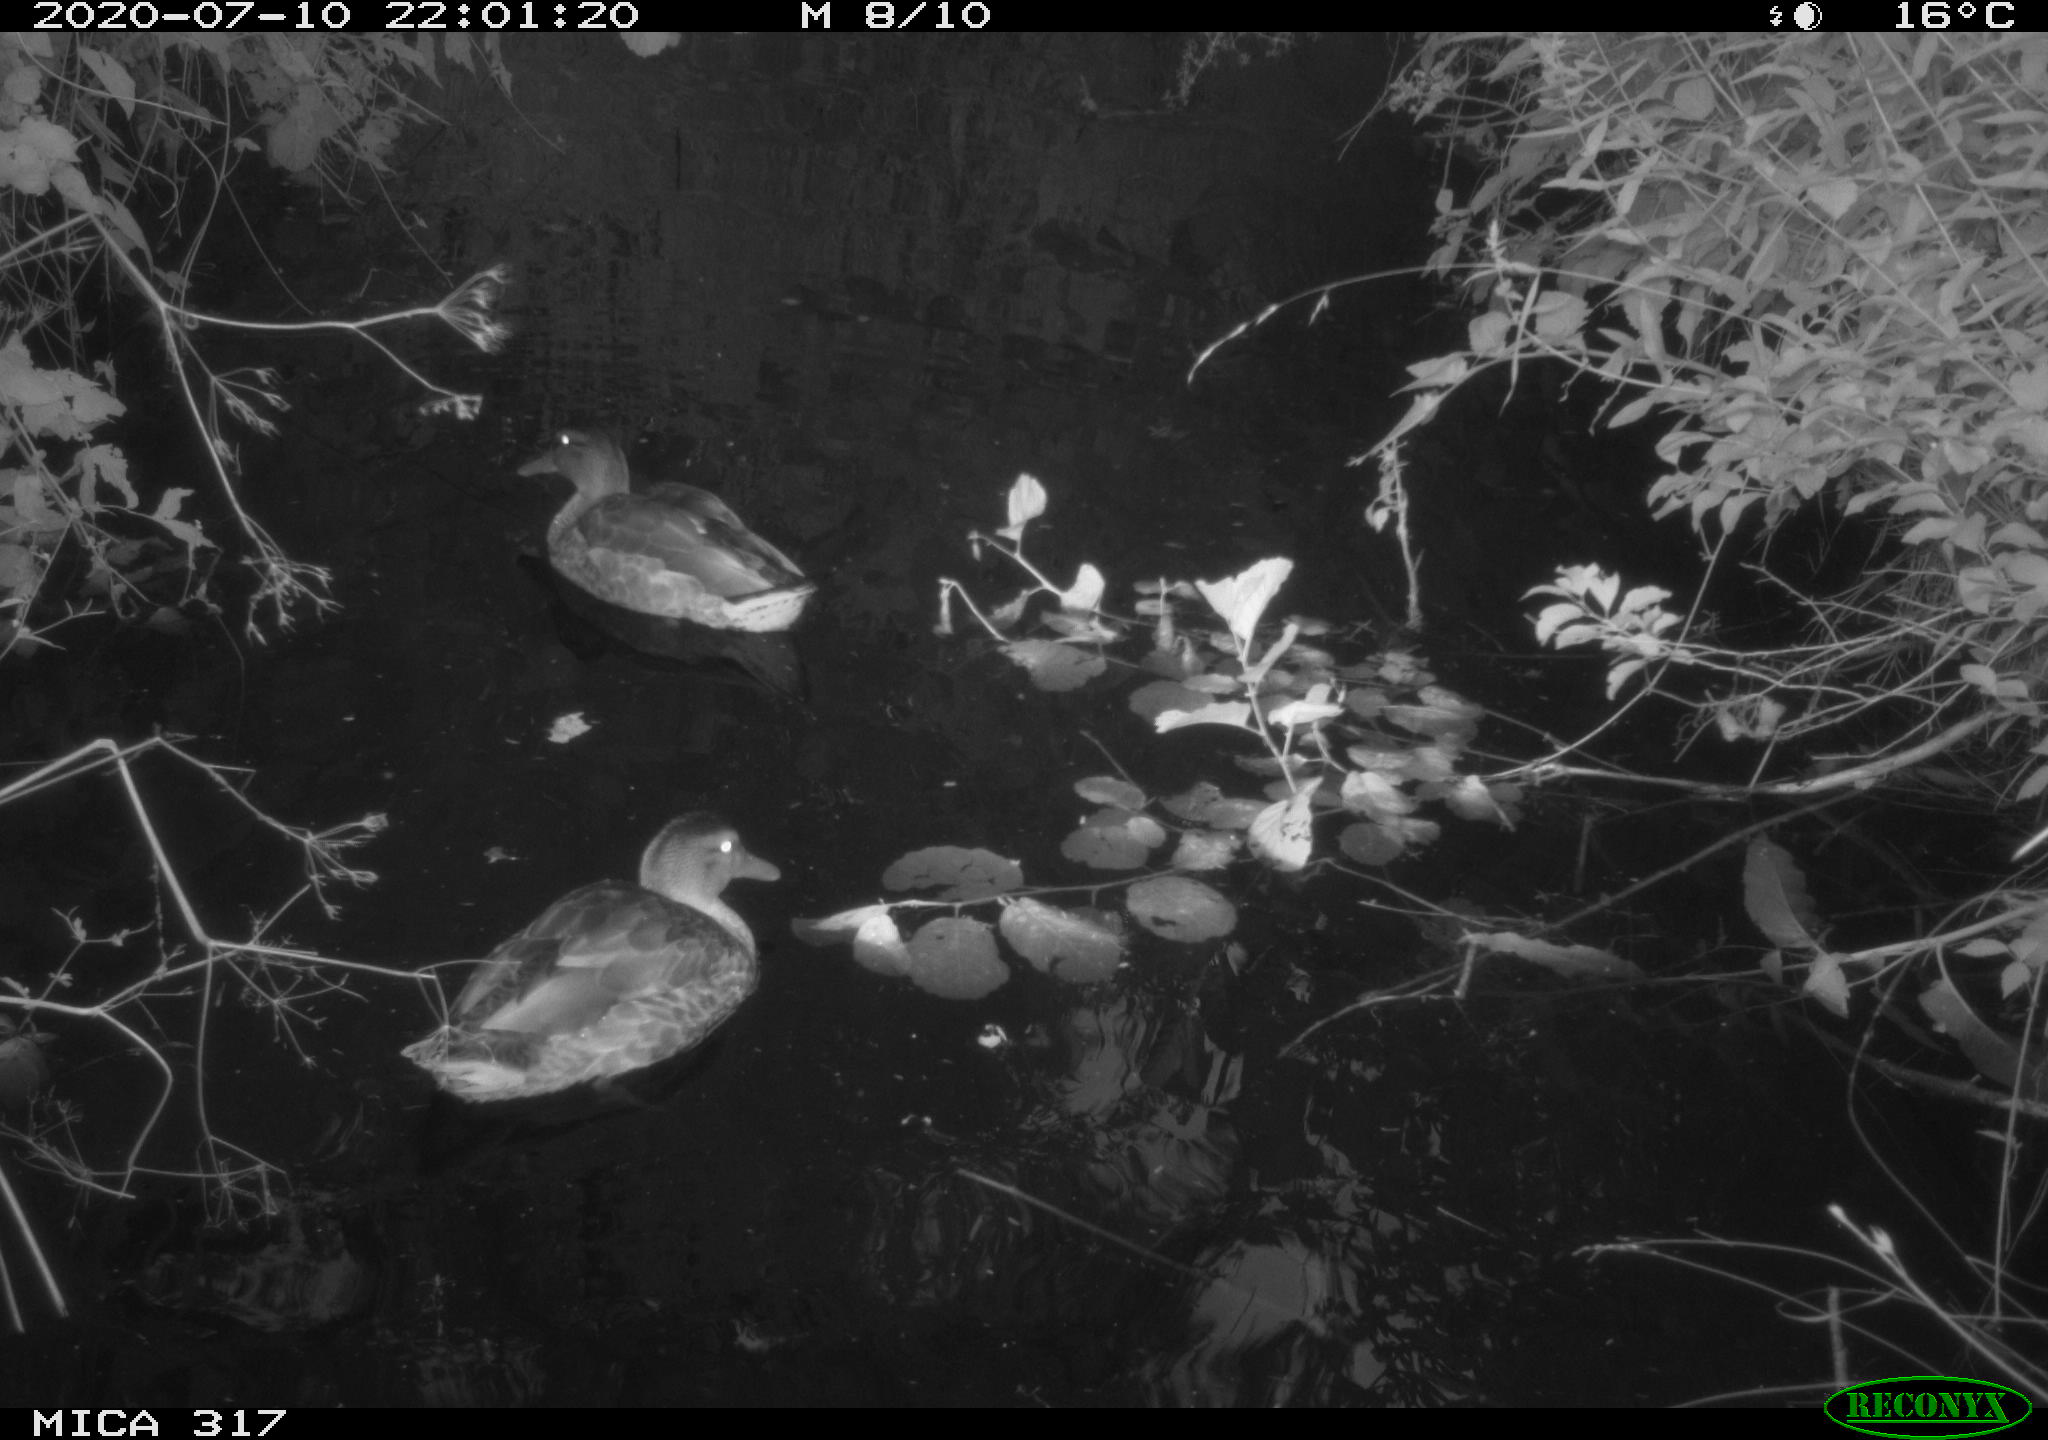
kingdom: Animalia
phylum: Chordata
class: Aves
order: Anseriformes
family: Anatidae
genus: Anas
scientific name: Anas platyrhynchos
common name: Mallard
